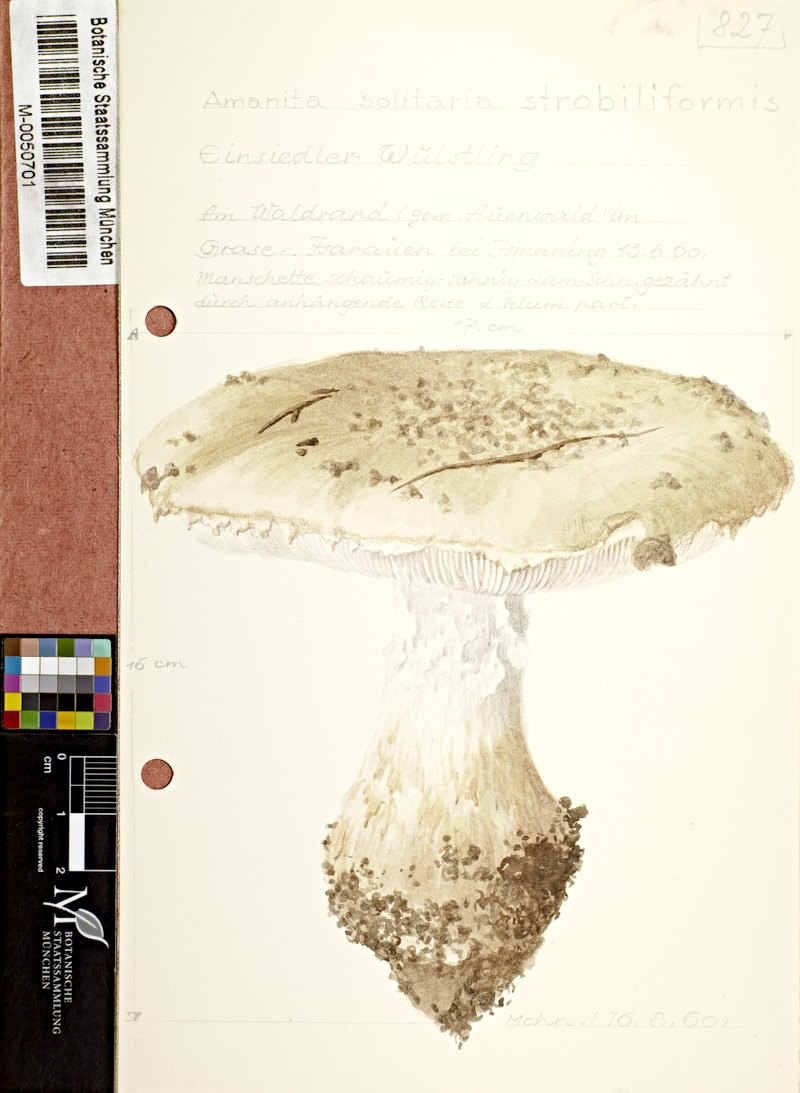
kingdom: Fungi
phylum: Basidiomycota
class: Agaricomycetes
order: Agaricales
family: Amanitaceae
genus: Amanita
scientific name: Amanita
